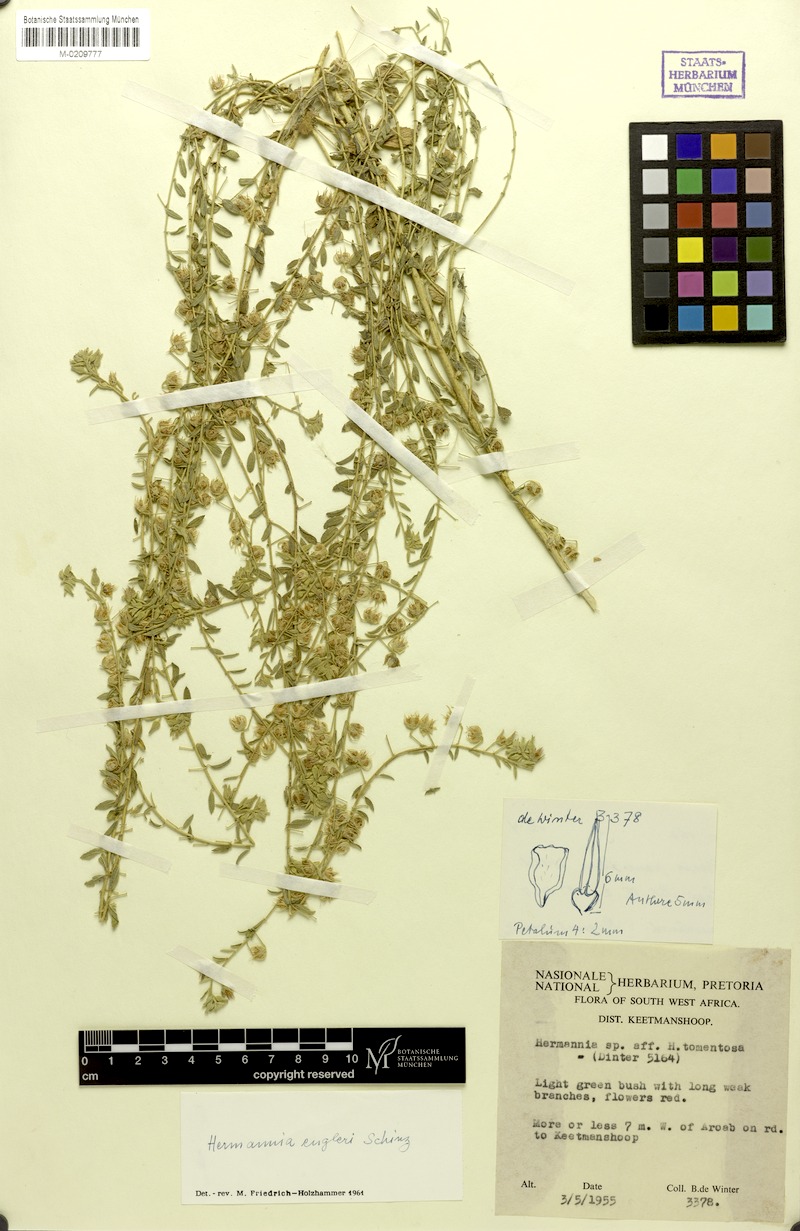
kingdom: Plantae
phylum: Tracheophyta
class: Magnoliopsida
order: Malvales
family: Malvaceae
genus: Hermannia
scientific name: Hermannia engleri
